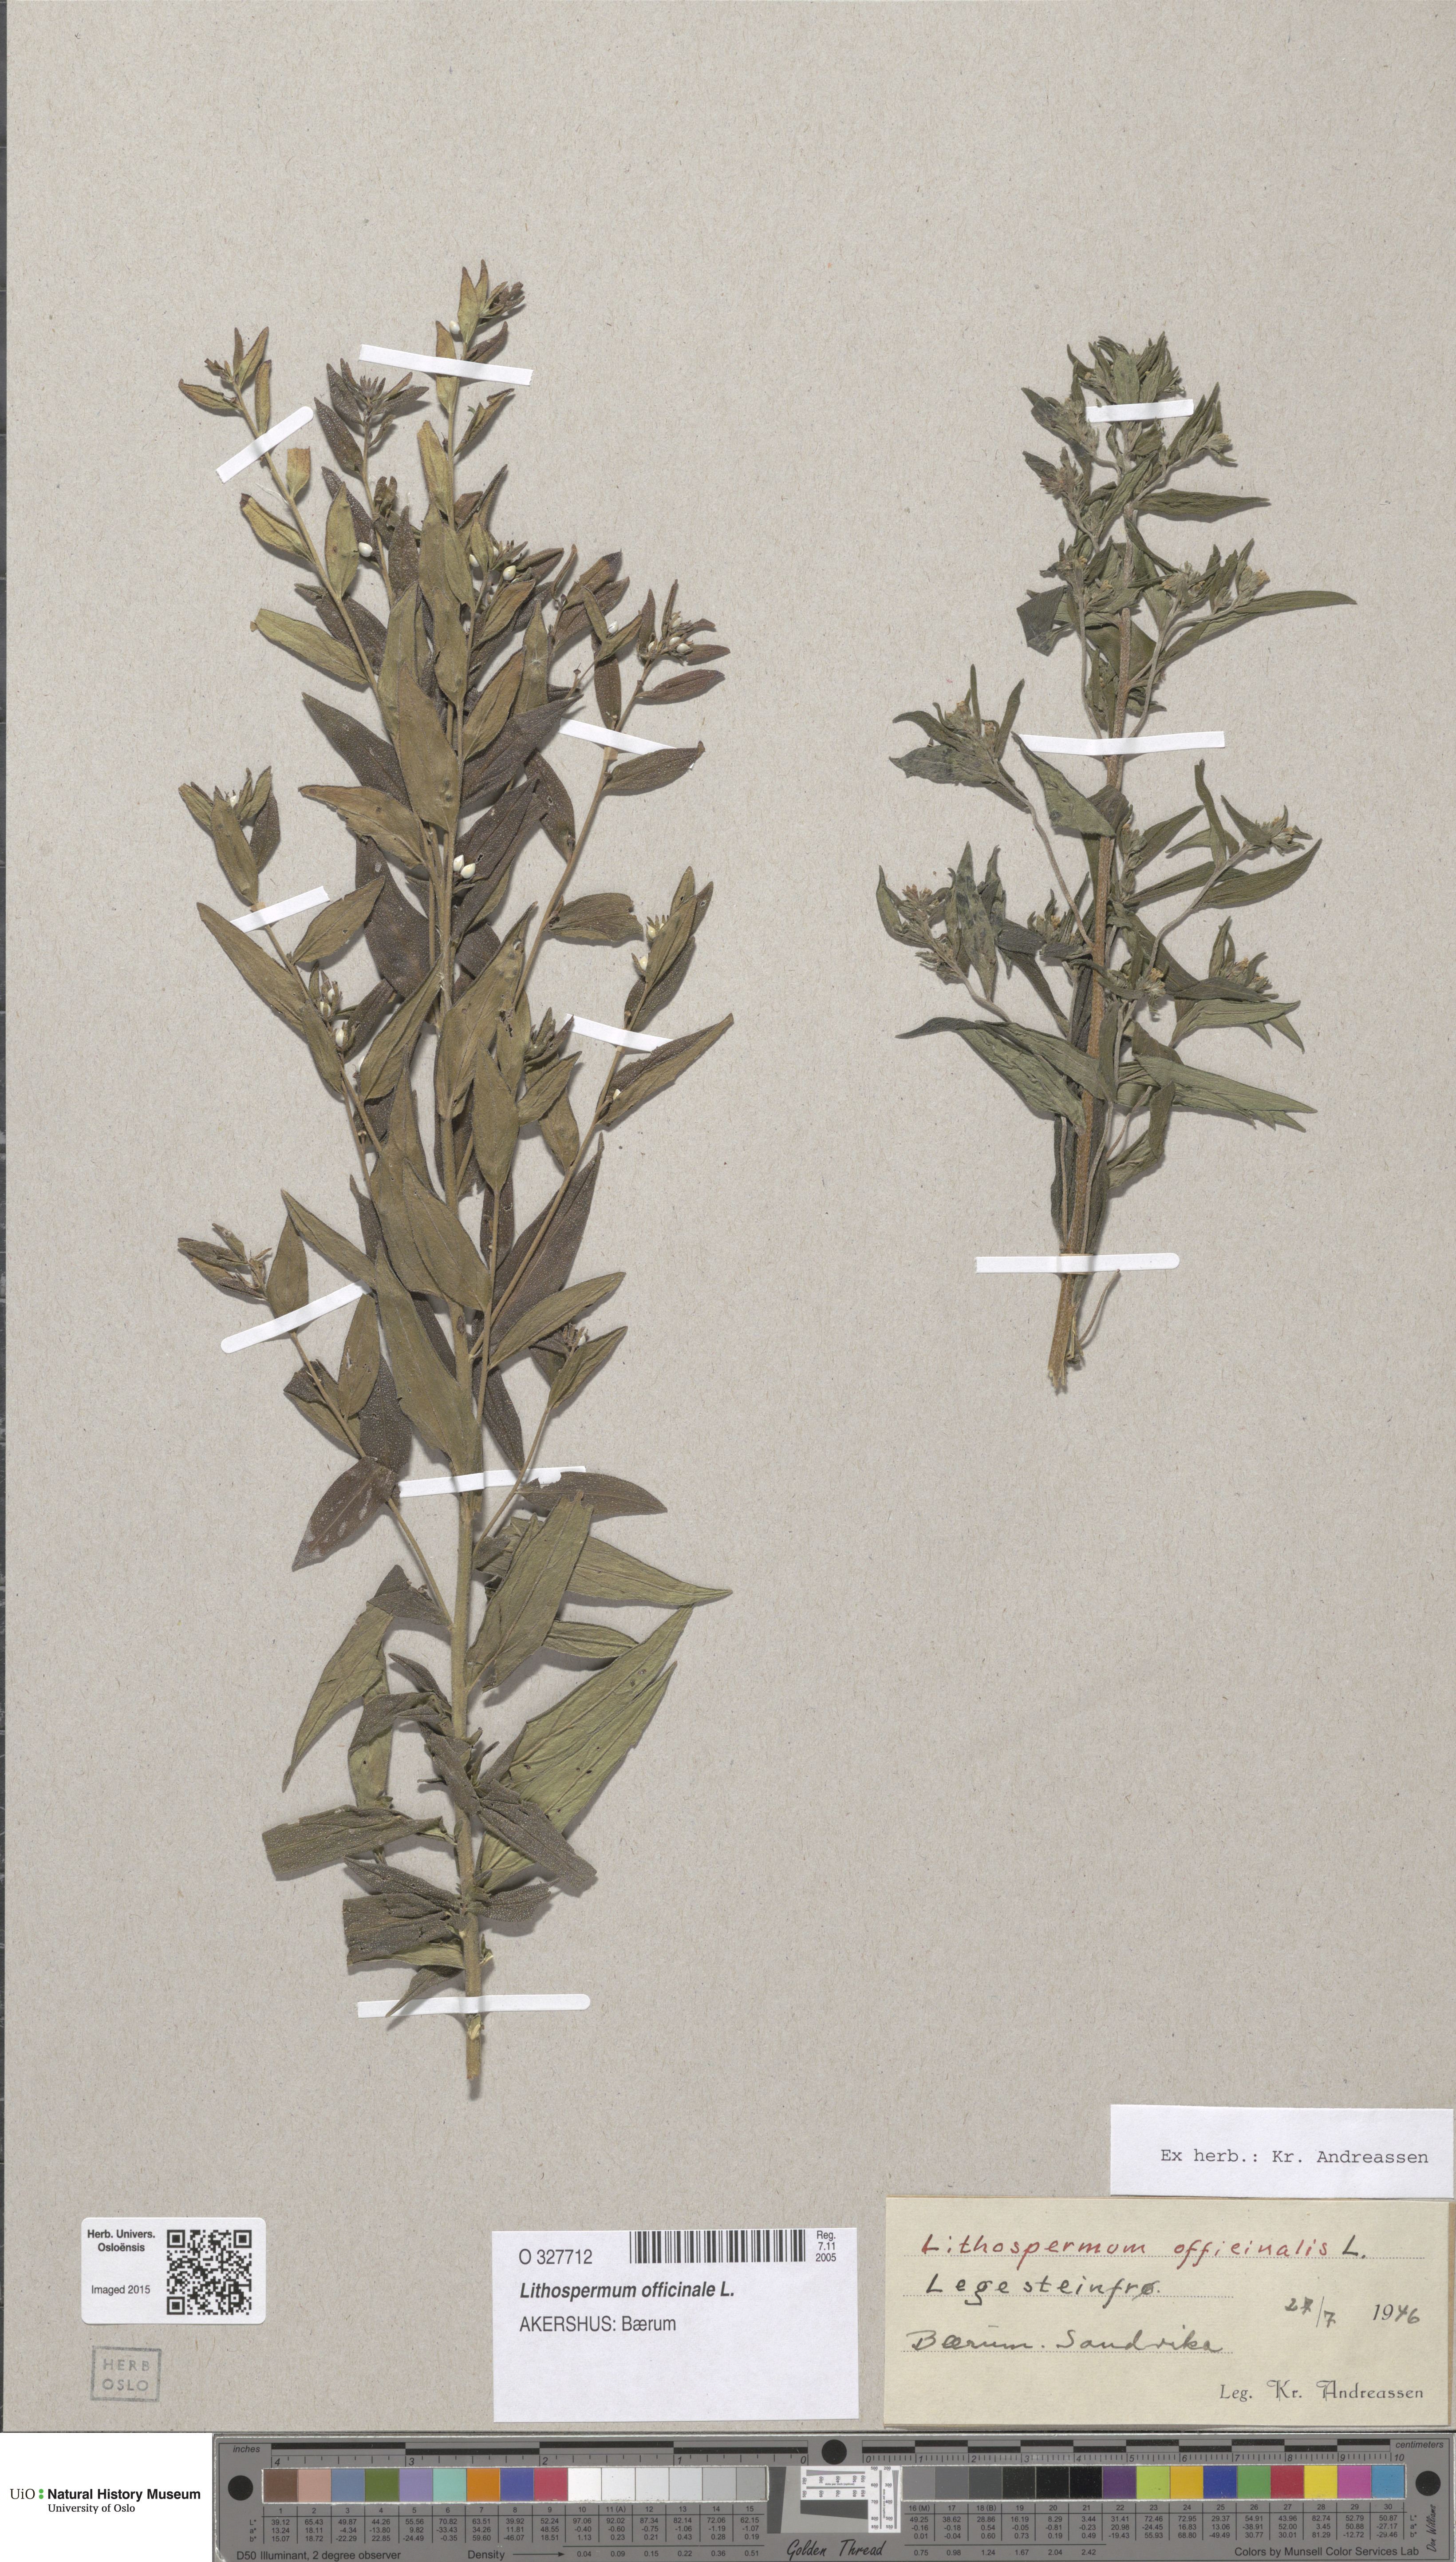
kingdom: Plantae
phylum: Tracheophyta
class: Magnoliopsida
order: Boraginales
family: Boraginaceae
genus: Lithospermum
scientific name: Lithospermum officinale
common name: Common gromwell
